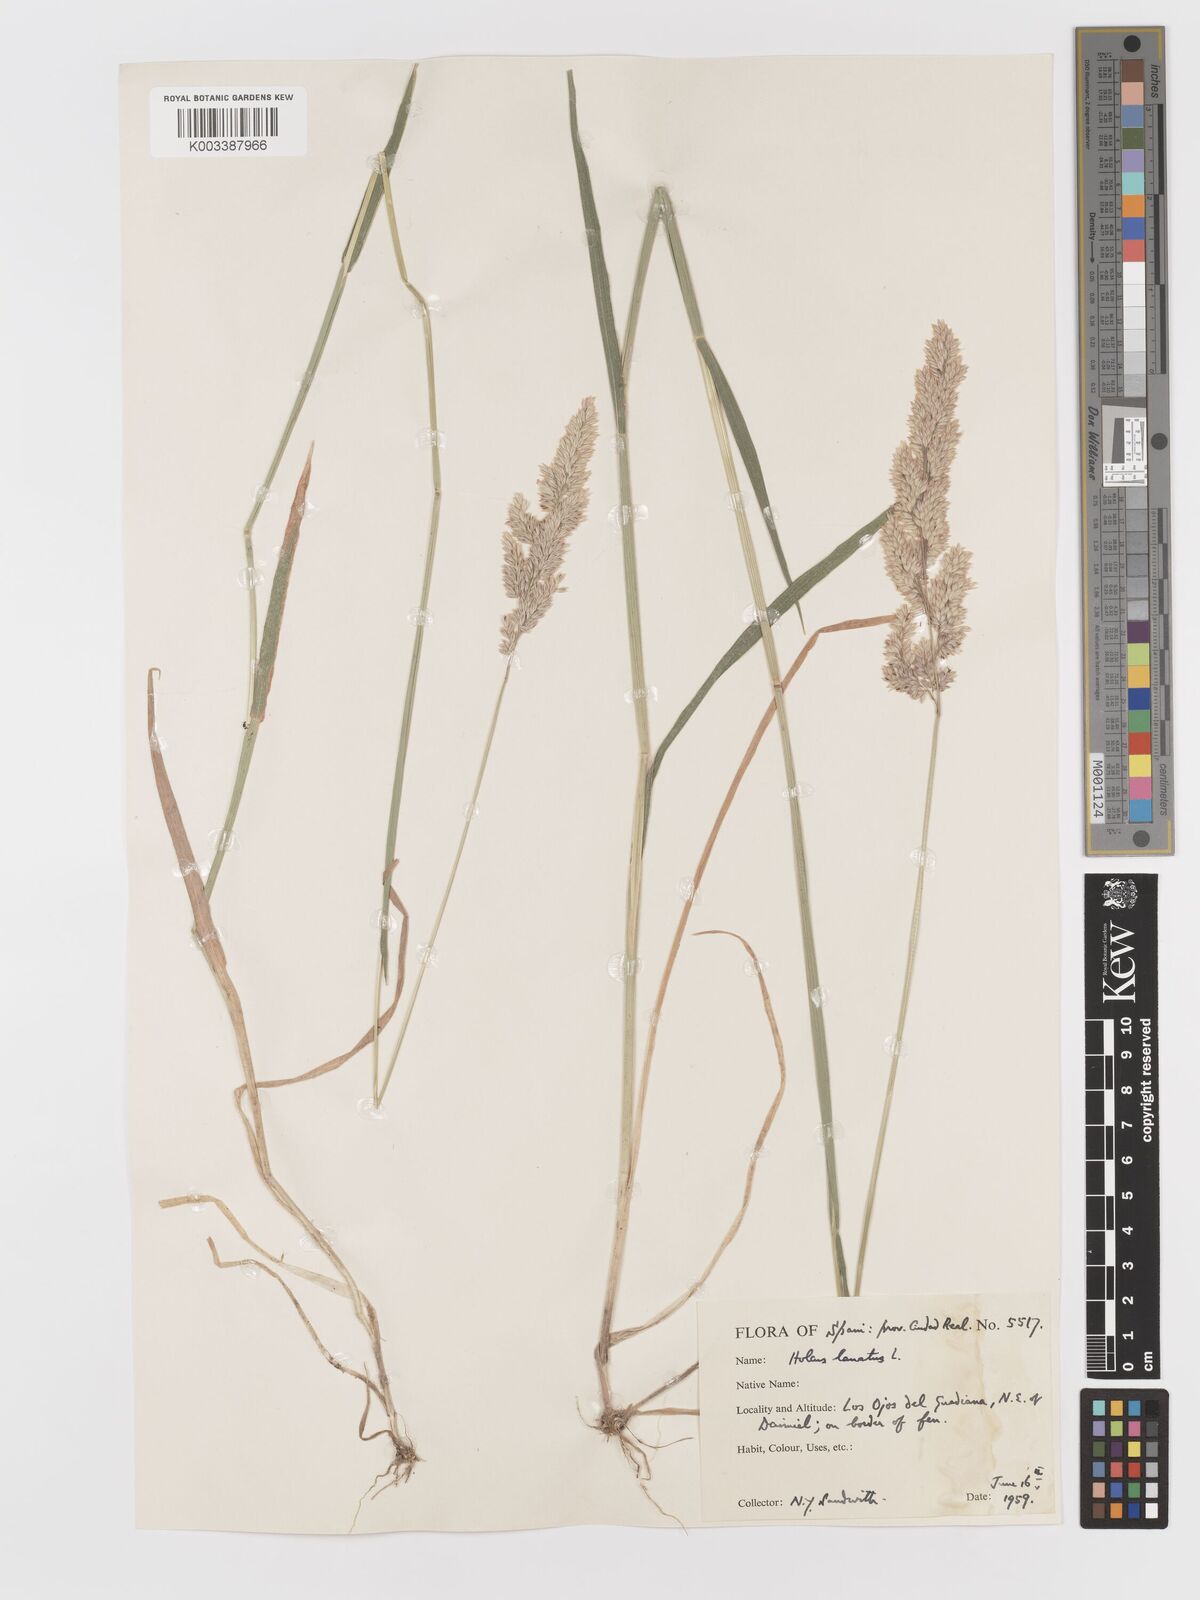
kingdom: Plantae
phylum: Tracheophyta
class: Liliopsida
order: Poales
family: Poaceae
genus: Holcus
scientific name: Holcus lanatus
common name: Yorkshire-fog
